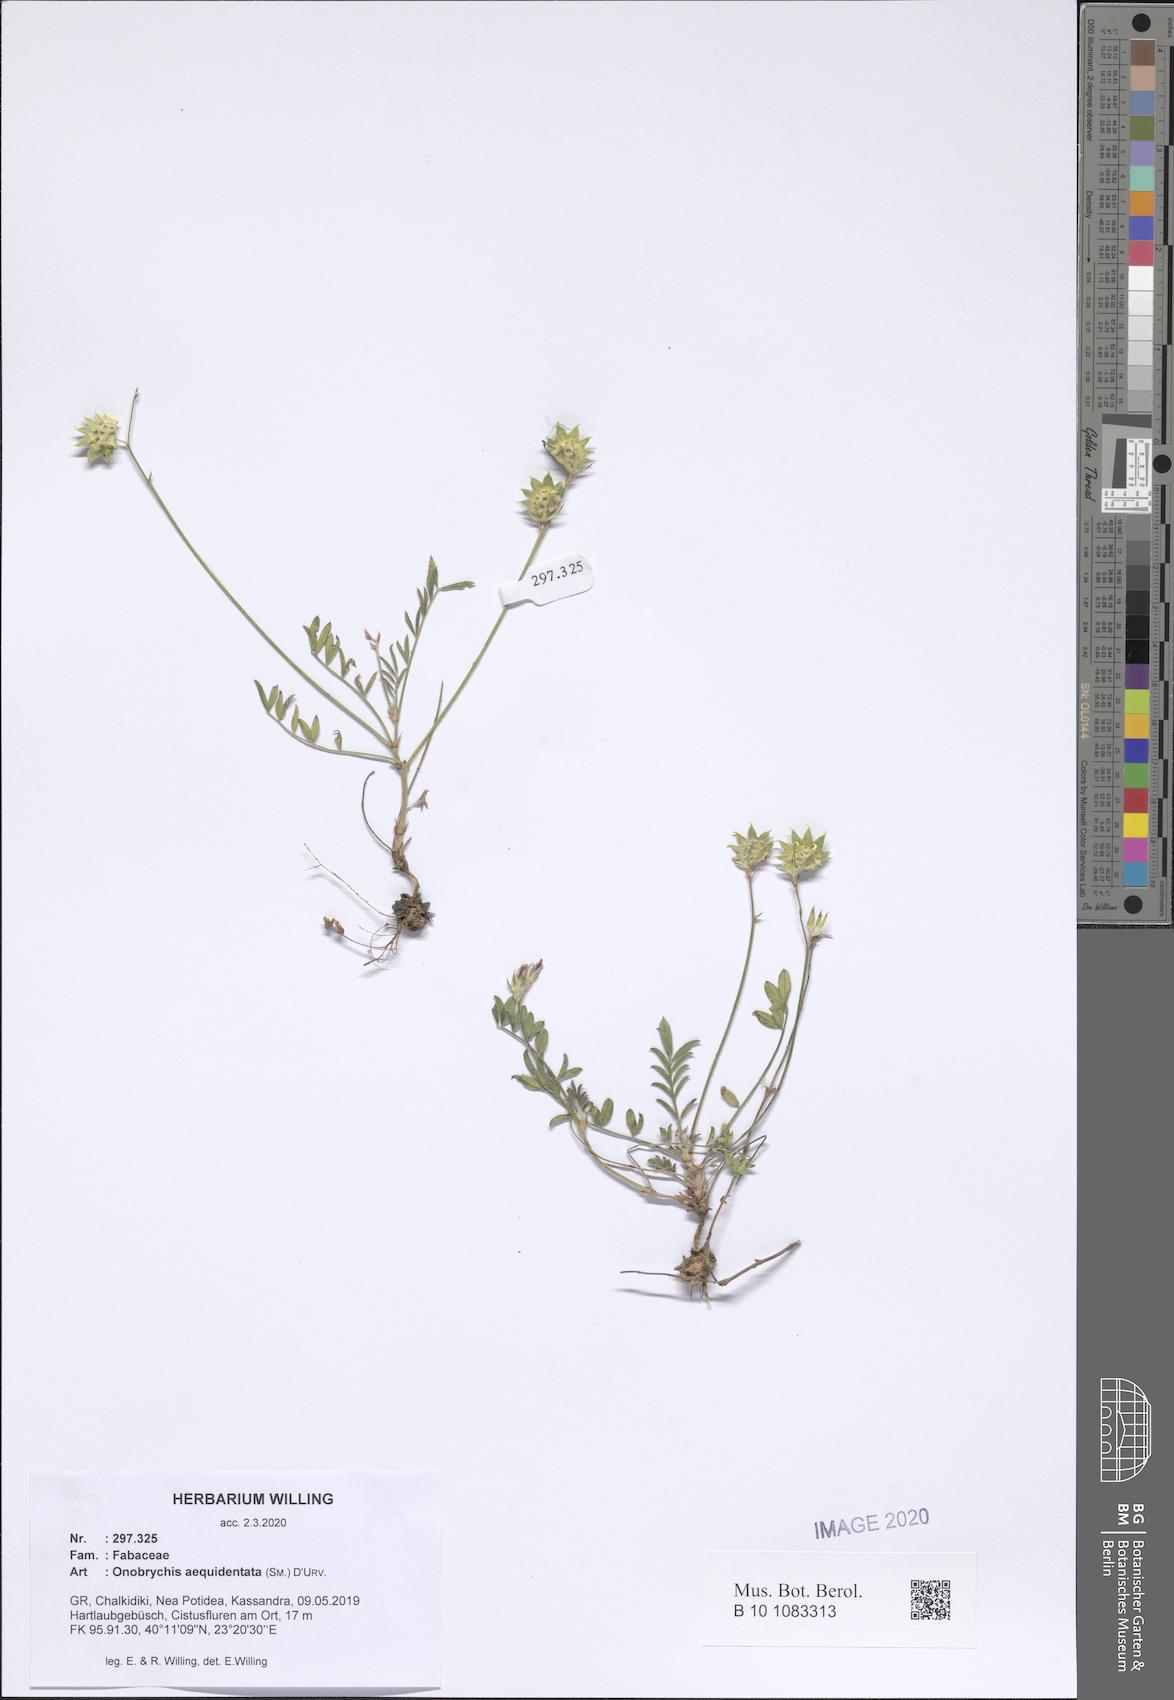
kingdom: Plantae
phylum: Tracheophyta
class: Magnoliopsida
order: Fabales
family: Fabaceae
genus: Onobrychis
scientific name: Onobrychis aequidentata
